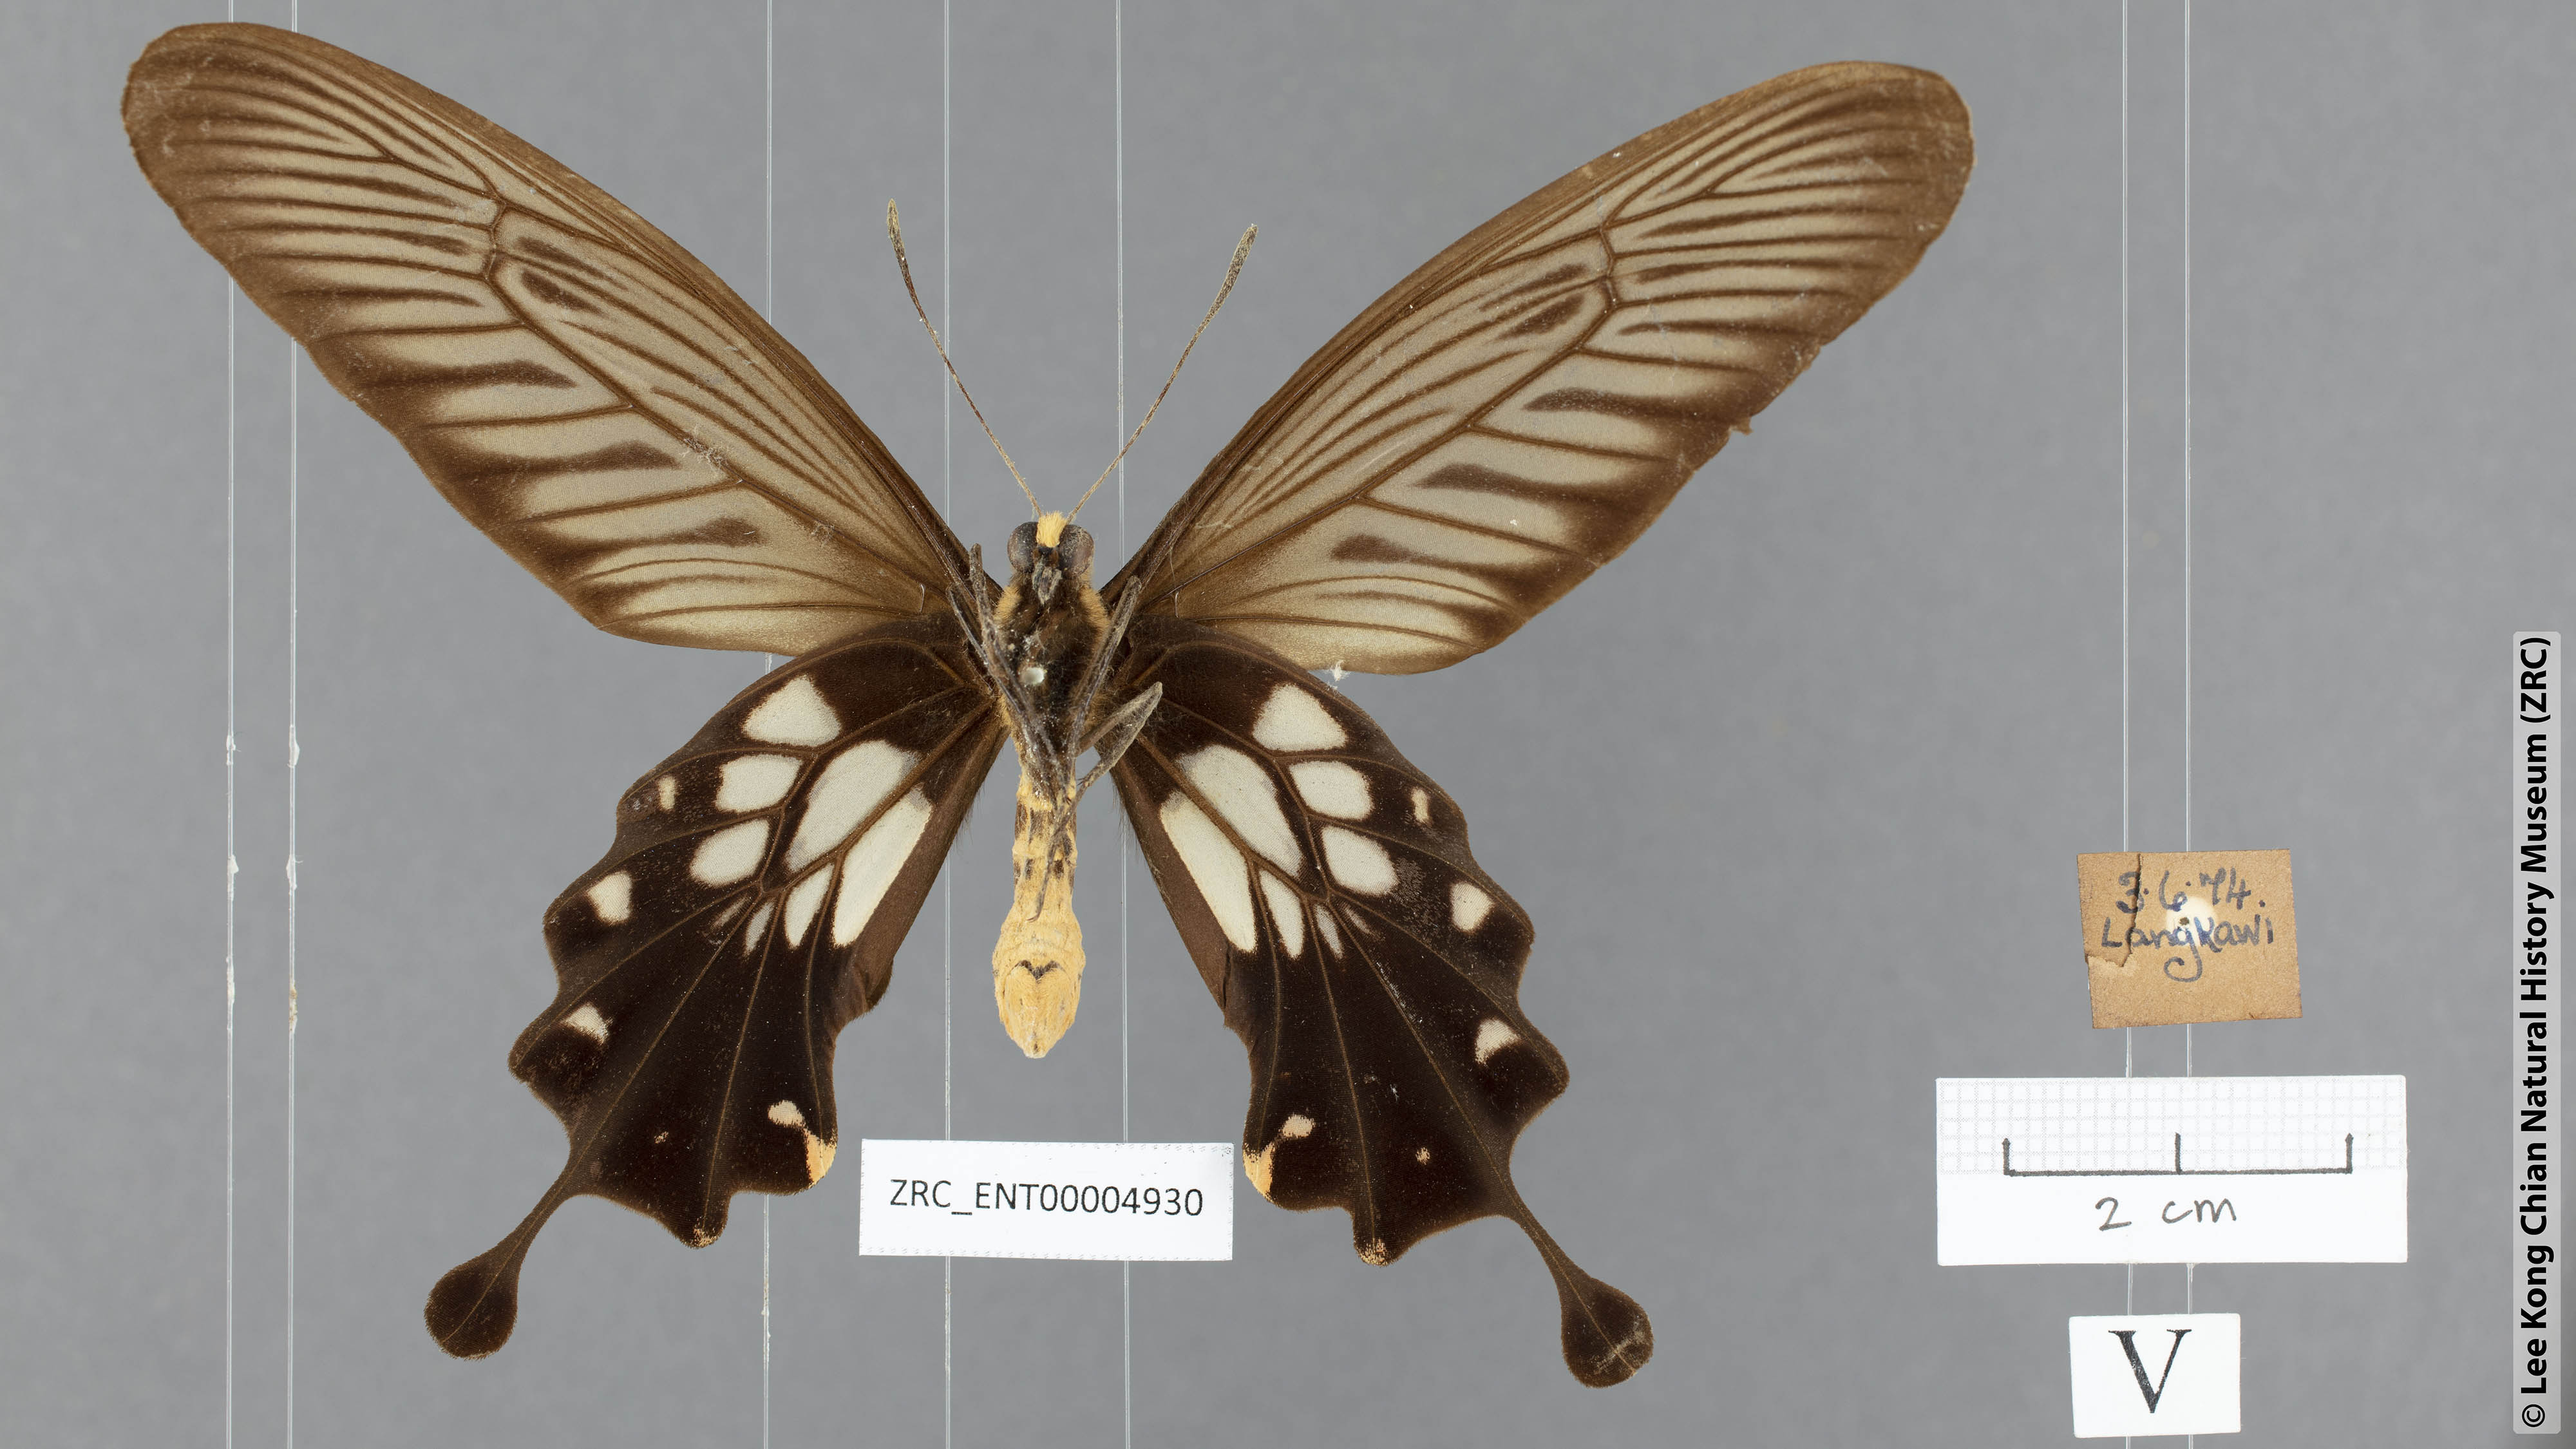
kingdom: Animalia
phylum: Arthropoda
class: Insecta
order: Lepidoptera
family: Papilionidae
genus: Losaria
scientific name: Losaria coon
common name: Common clubtail
